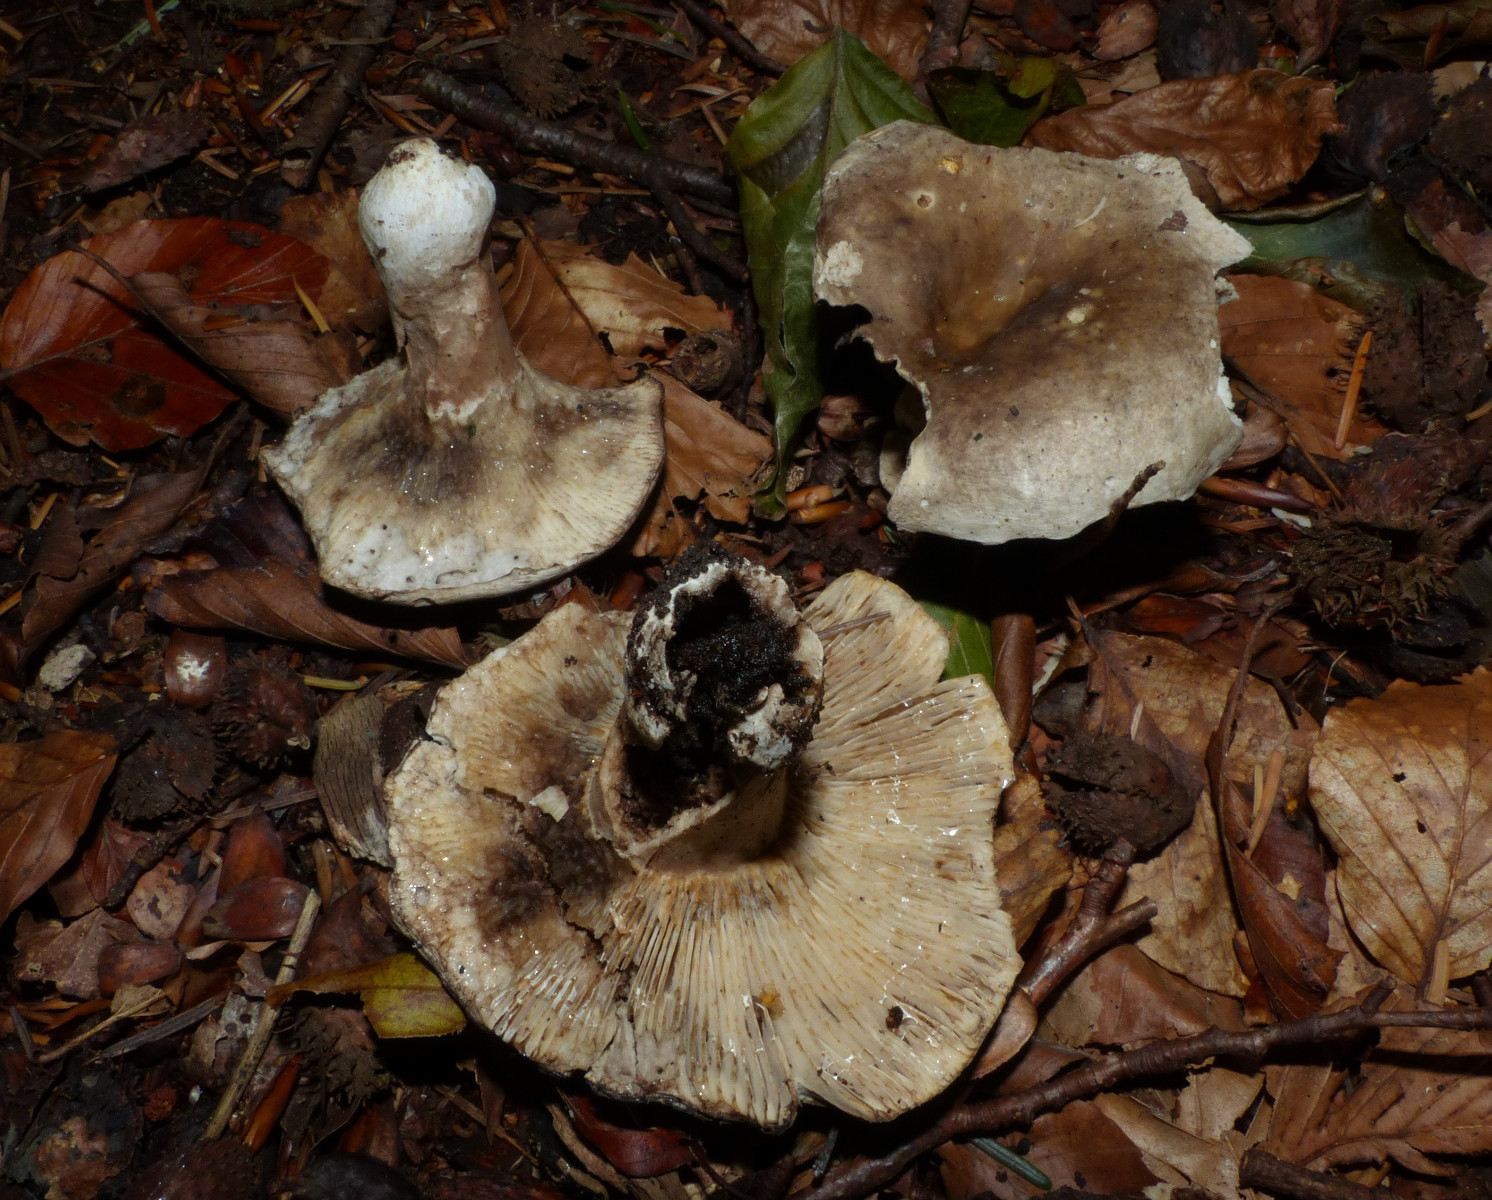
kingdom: Fungi
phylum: Basidiomycota
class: Agaricomycetes
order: Russulales
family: Russulaceae
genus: Russula
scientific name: Russula densifolia
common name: tætbladet skørhat
